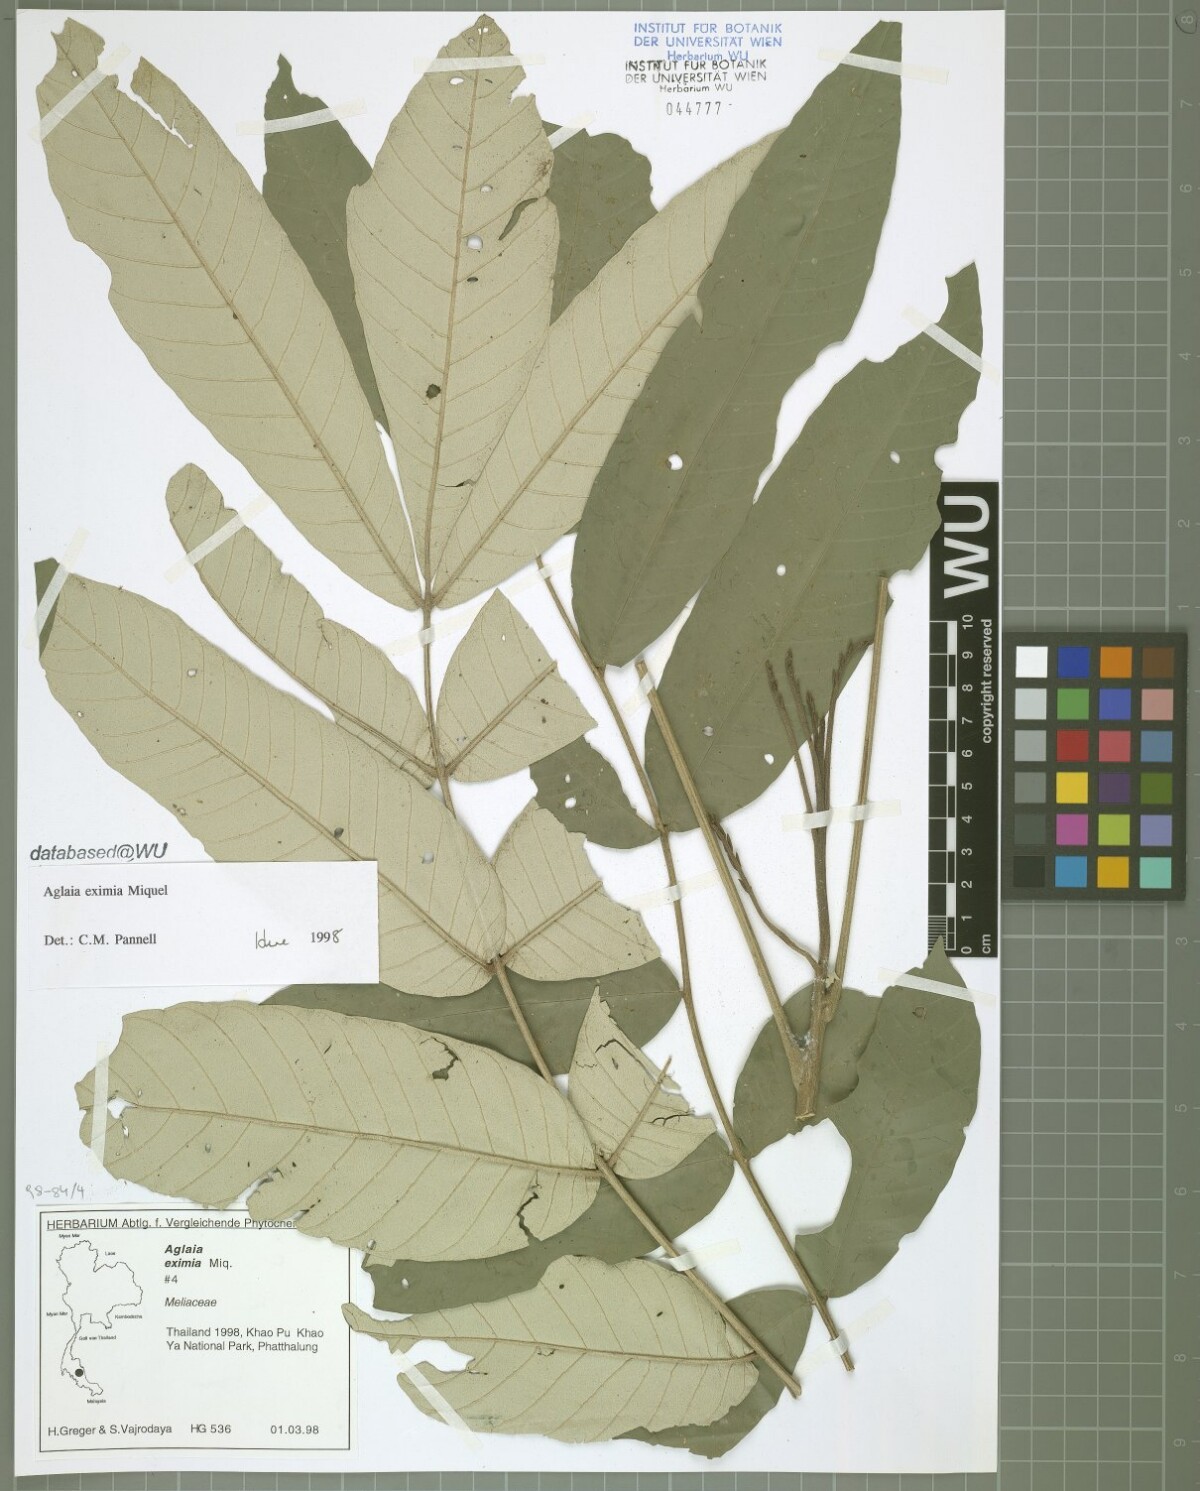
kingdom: Plantae
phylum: Tracheophyta
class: Magnoliopsida
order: Sapindales
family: Meliaceae
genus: Aglaia
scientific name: Aglaia eximia
